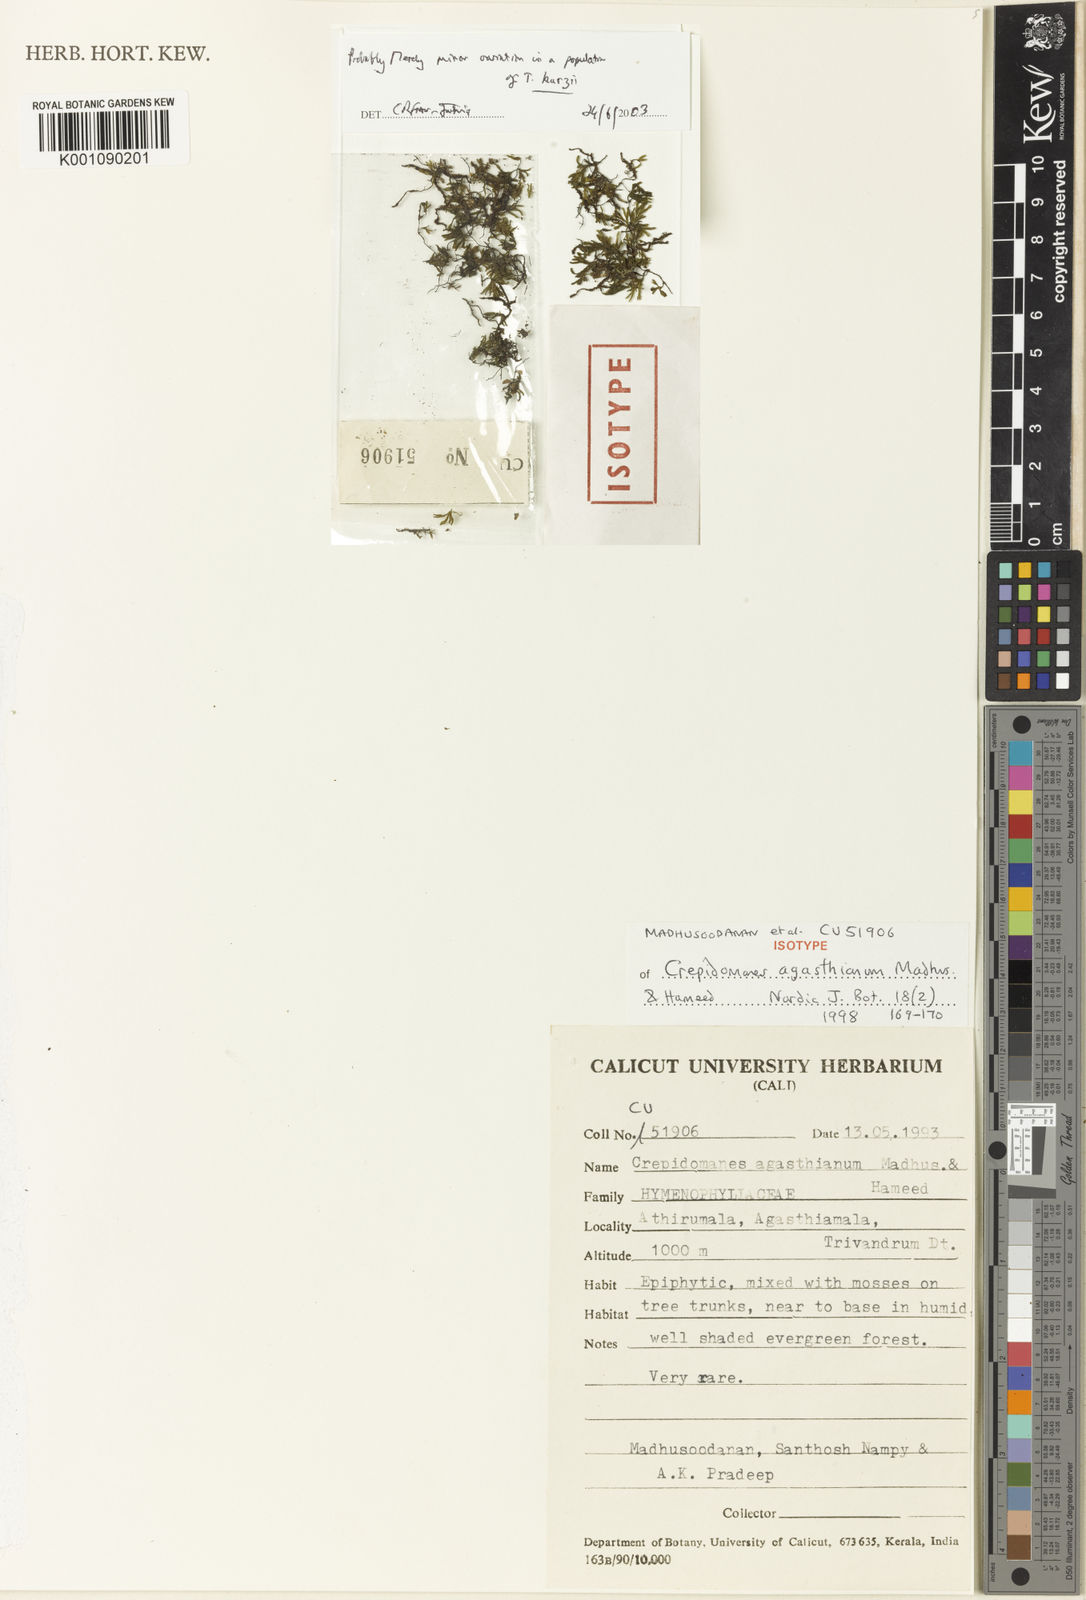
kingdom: Plantae
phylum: Tracheophyta
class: Polypodiopsida
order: Hymenophyllales
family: Hymenophyllaceae
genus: Crepidomanes
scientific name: Crepidomanes intramarginale
